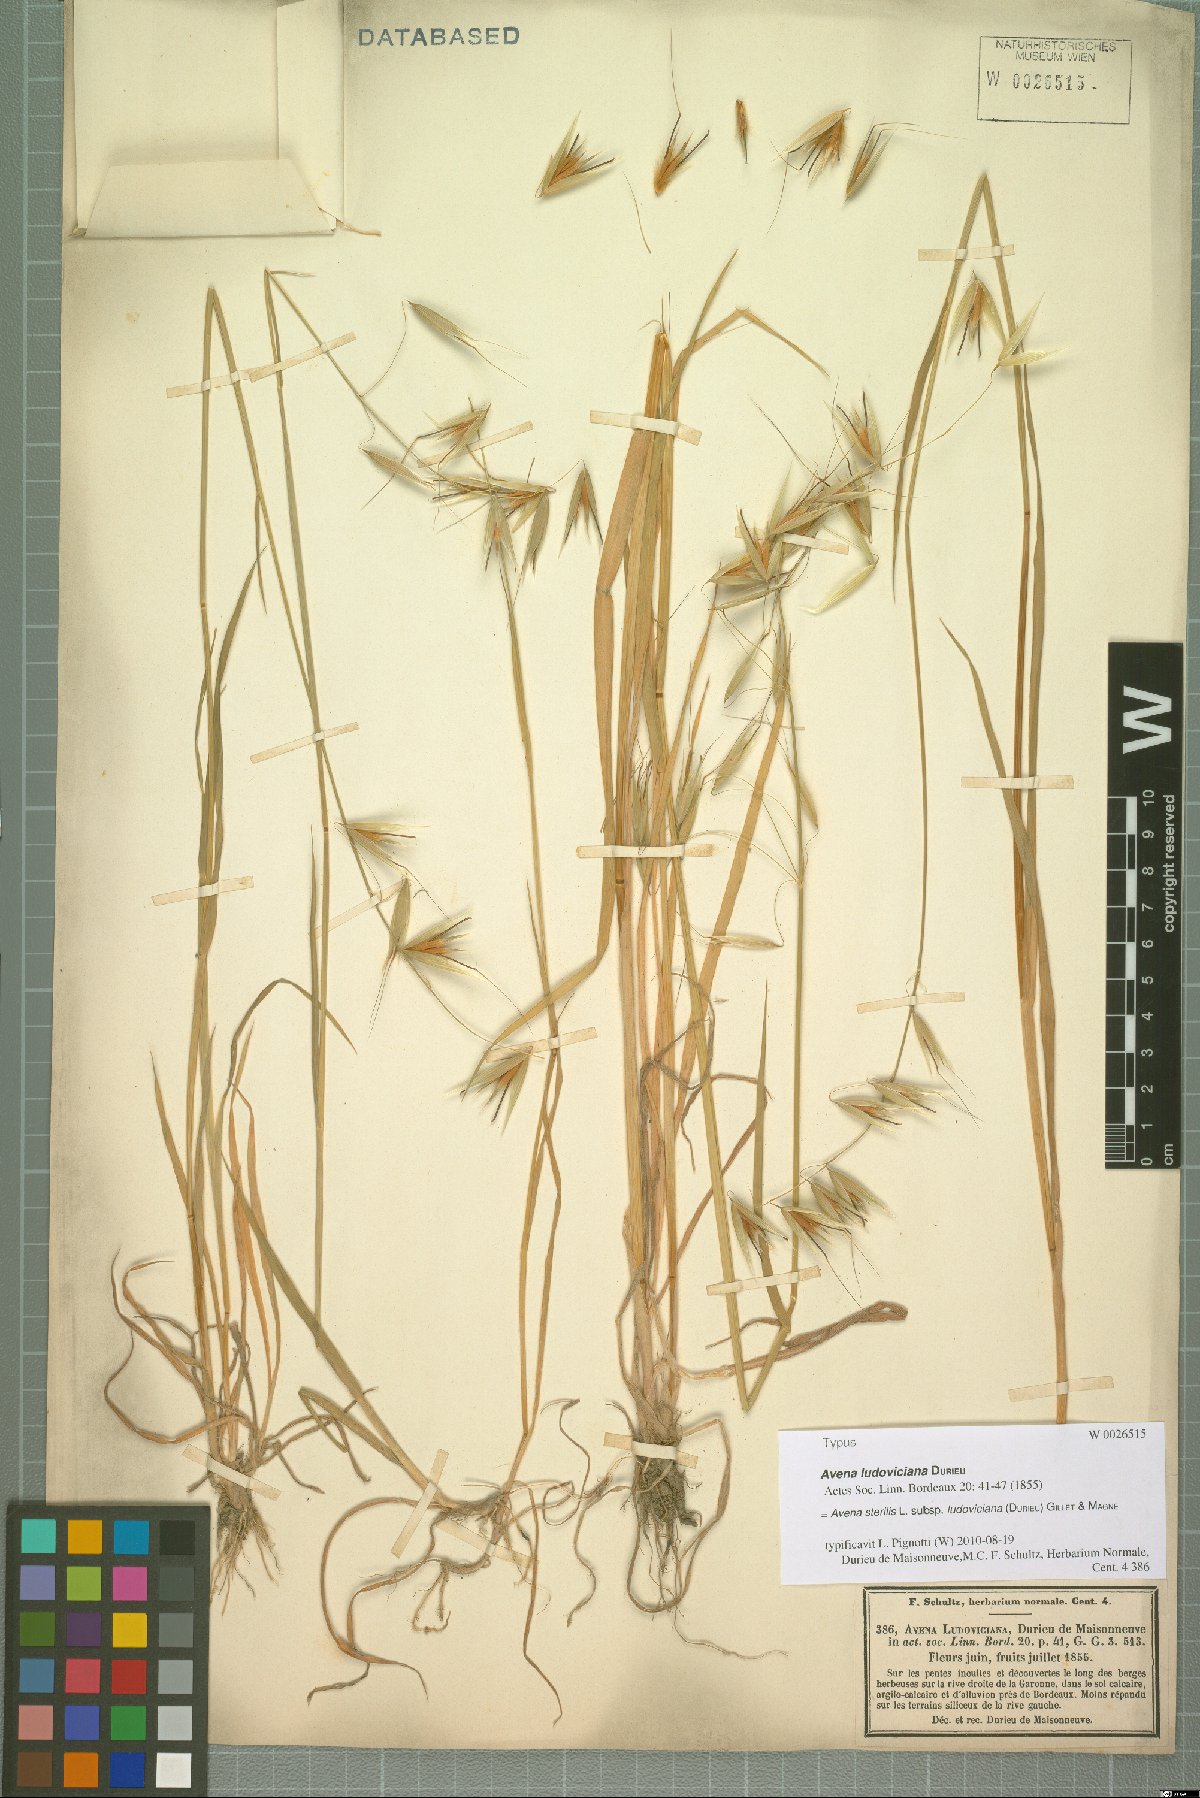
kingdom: Plantae
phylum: Tracheophyta
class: Liliopsida
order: Poales
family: Poaceae
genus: Avena
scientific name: Avena sterilis
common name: Animated oat
